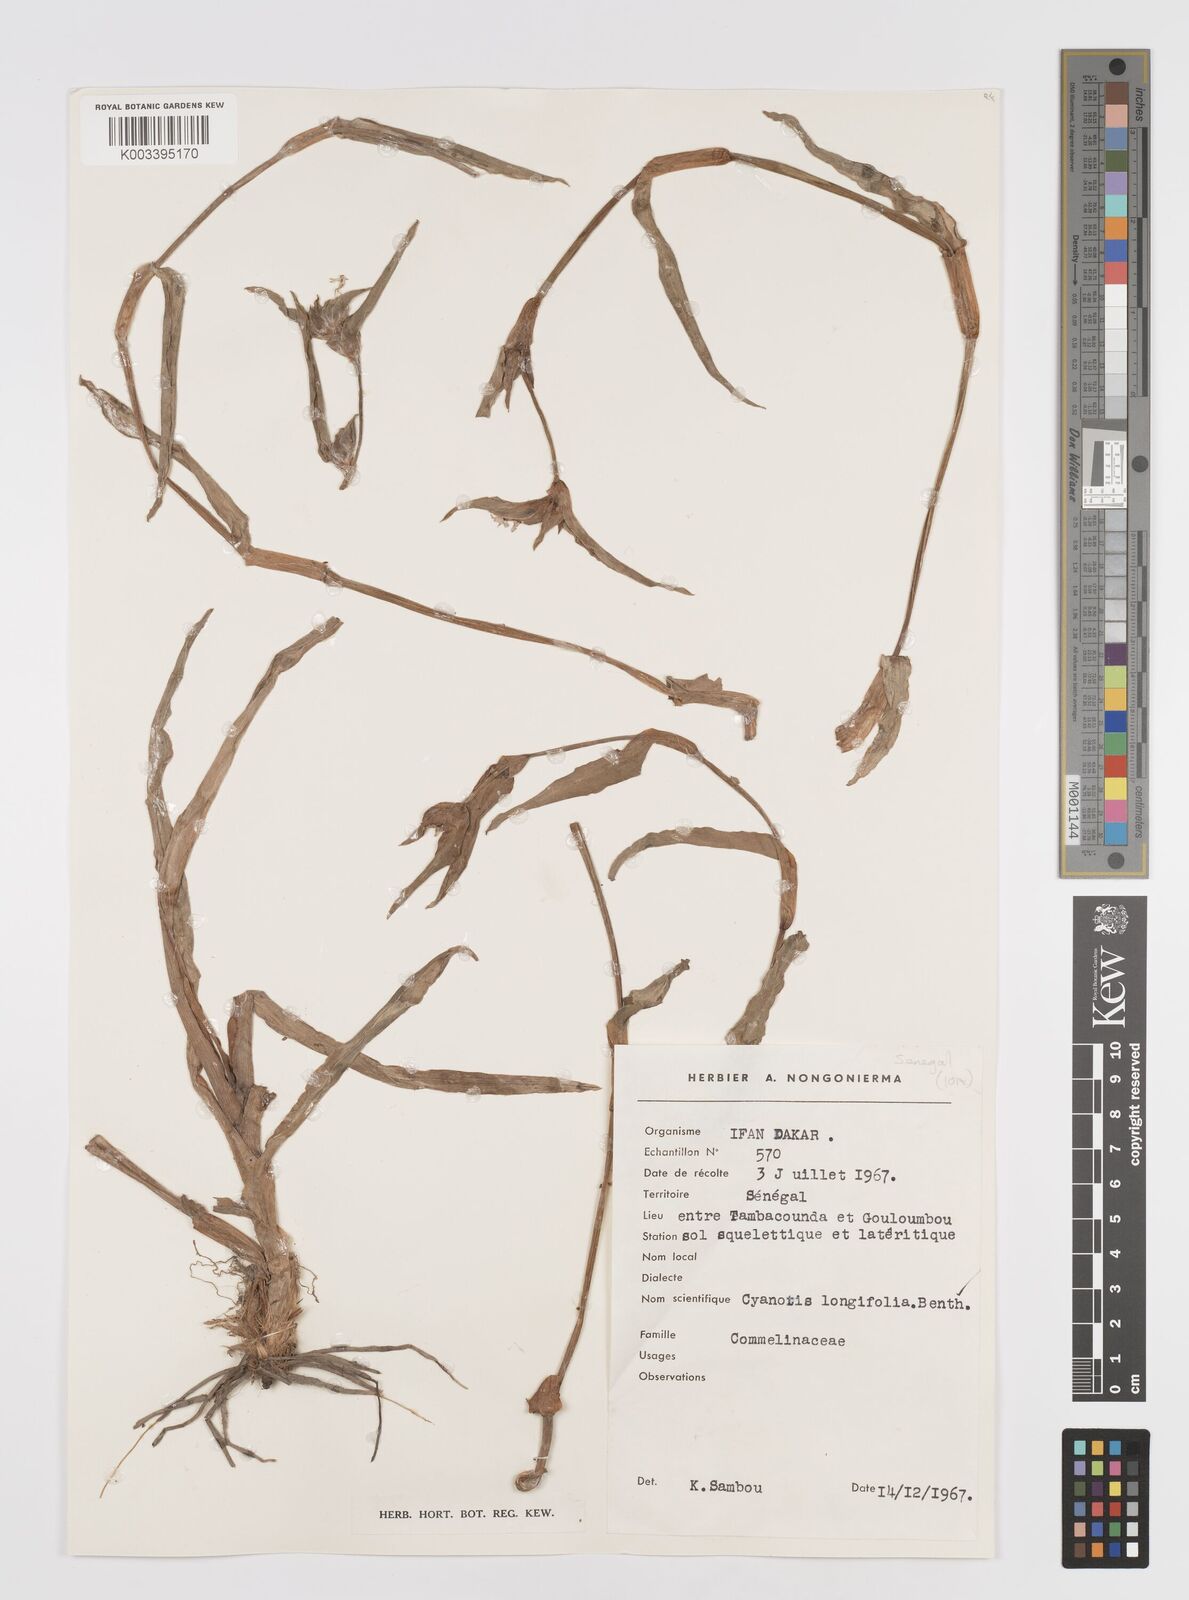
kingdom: Plantae
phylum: Tracheophyta
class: Liliopsida
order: Commelinales
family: Commelinaceae
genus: Cyanotis
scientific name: Cyanotis
